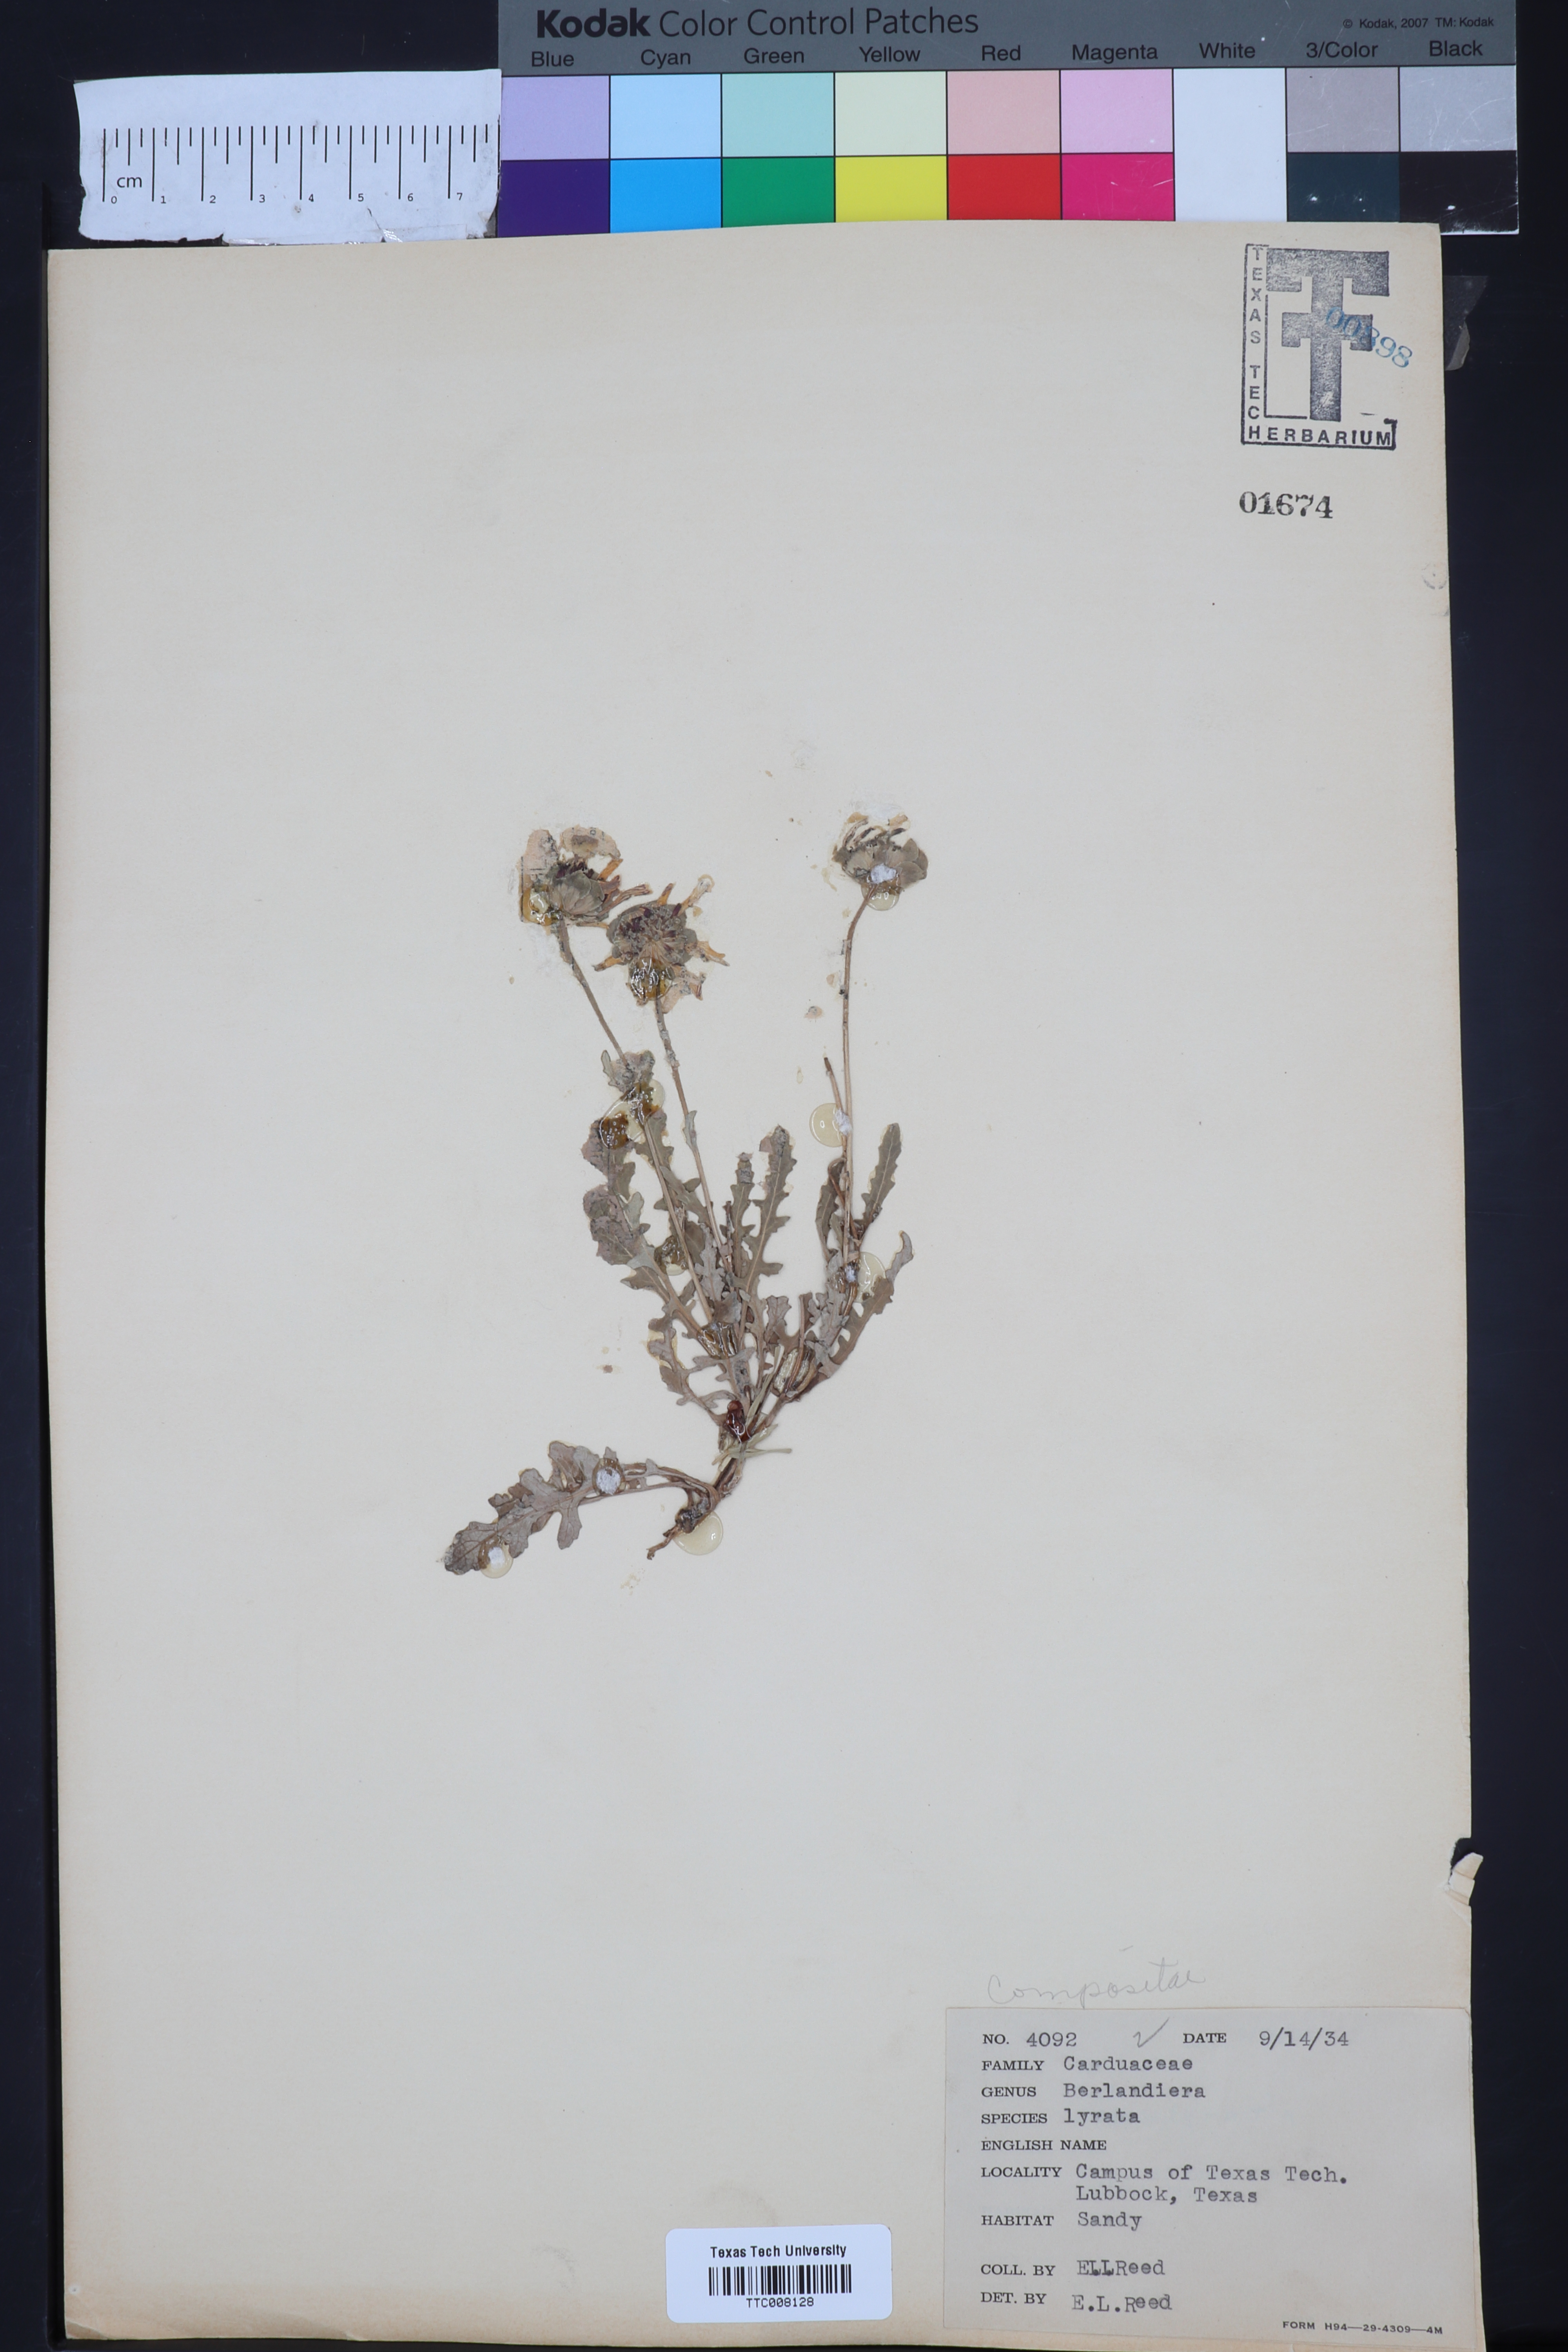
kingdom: Plantae
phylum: Tracheophyta
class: Magnoliopsida
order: Asterales
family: Asteraceae
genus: Berlandiera
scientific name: Berlandiera lyrata
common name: Chocolate-flower
